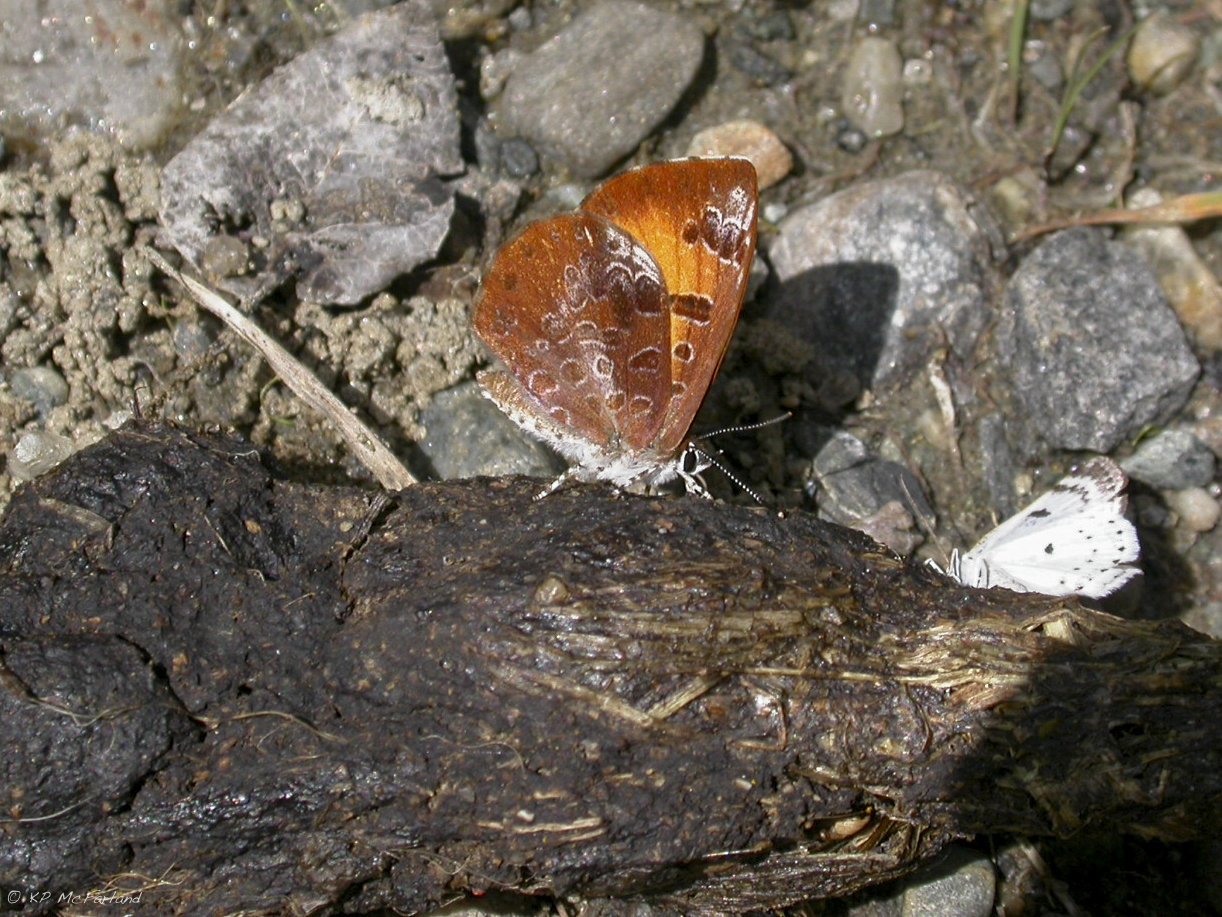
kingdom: Animalia
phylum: Arthropoda
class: Insecta
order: Lepidoptera
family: Lycaenidae
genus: Feniseca
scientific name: Feniseca tarquinius
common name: Harvester
